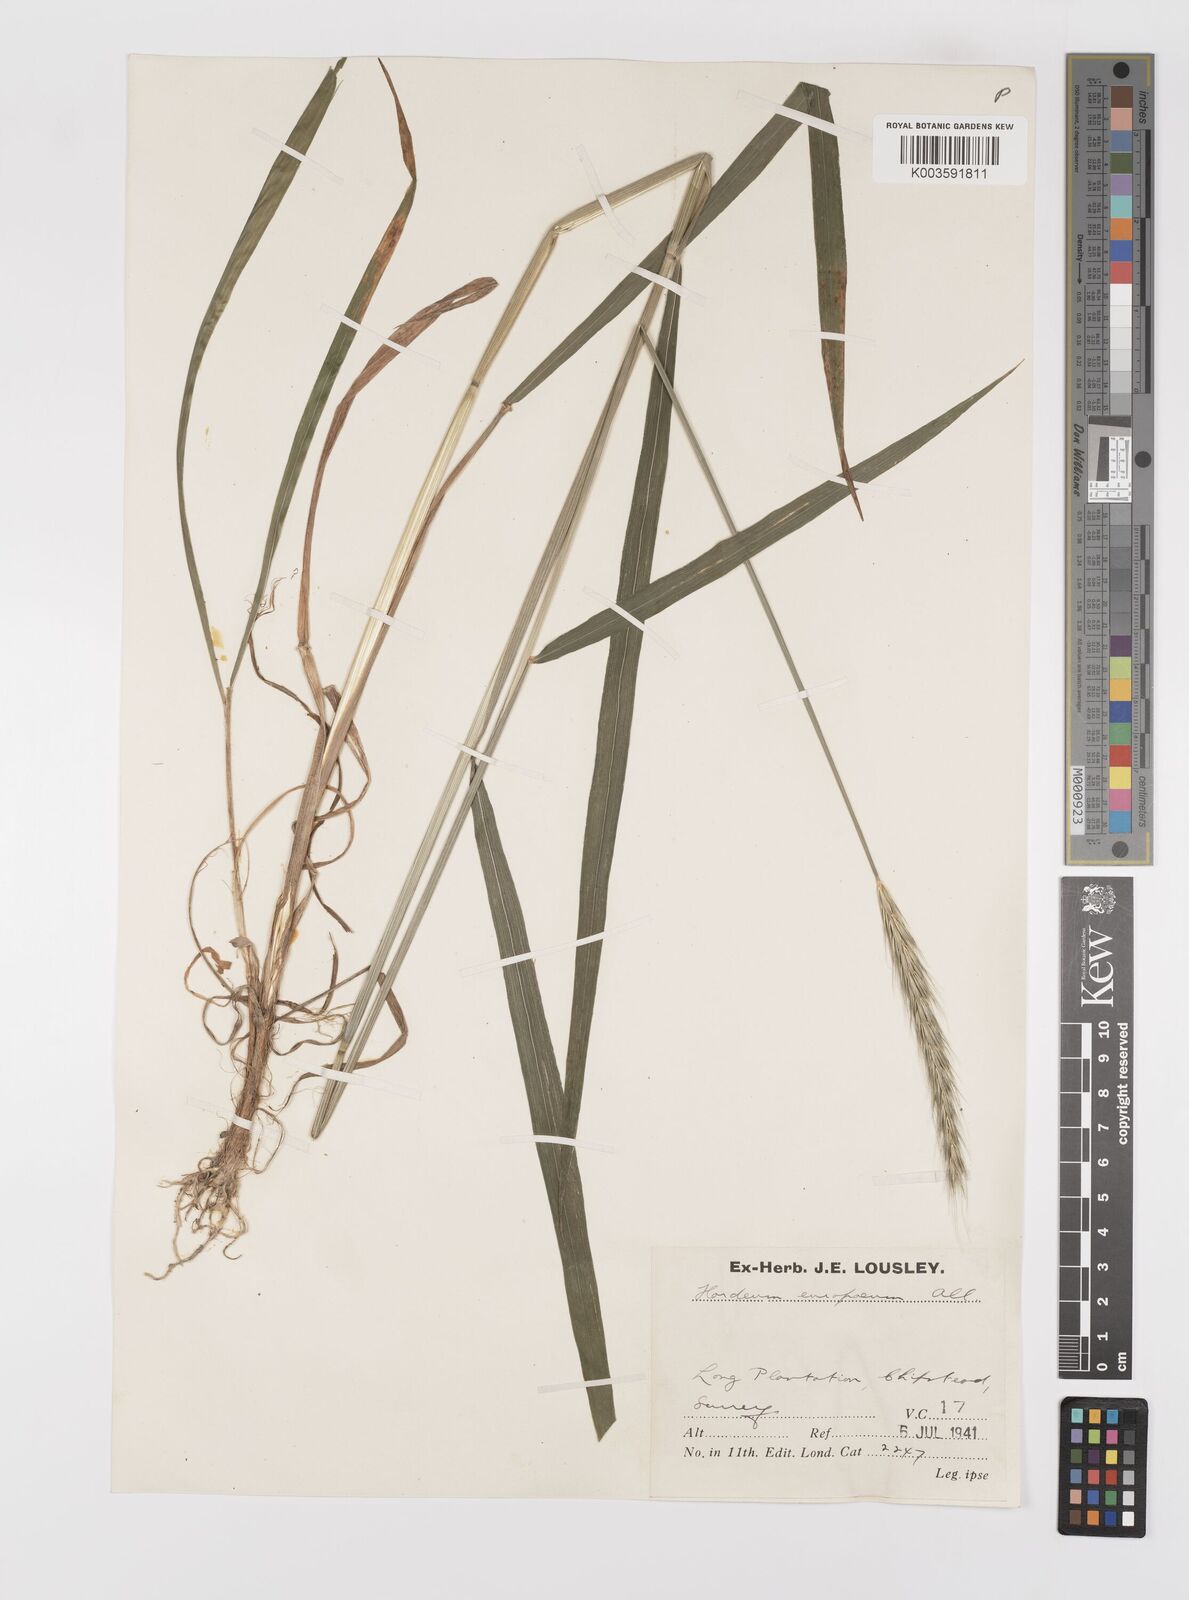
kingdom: Plantae
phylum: Tracheophyta
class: Liliopsida
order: Poales
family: Poaceae
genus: Hordelymus
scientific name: Hordelymus europaeus
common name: Wood-barley
